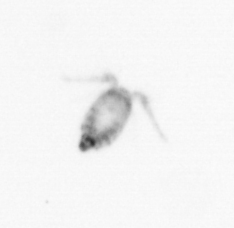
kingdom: Animalia
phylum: Arthropoda
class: Copepoda
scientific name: Copepoda
